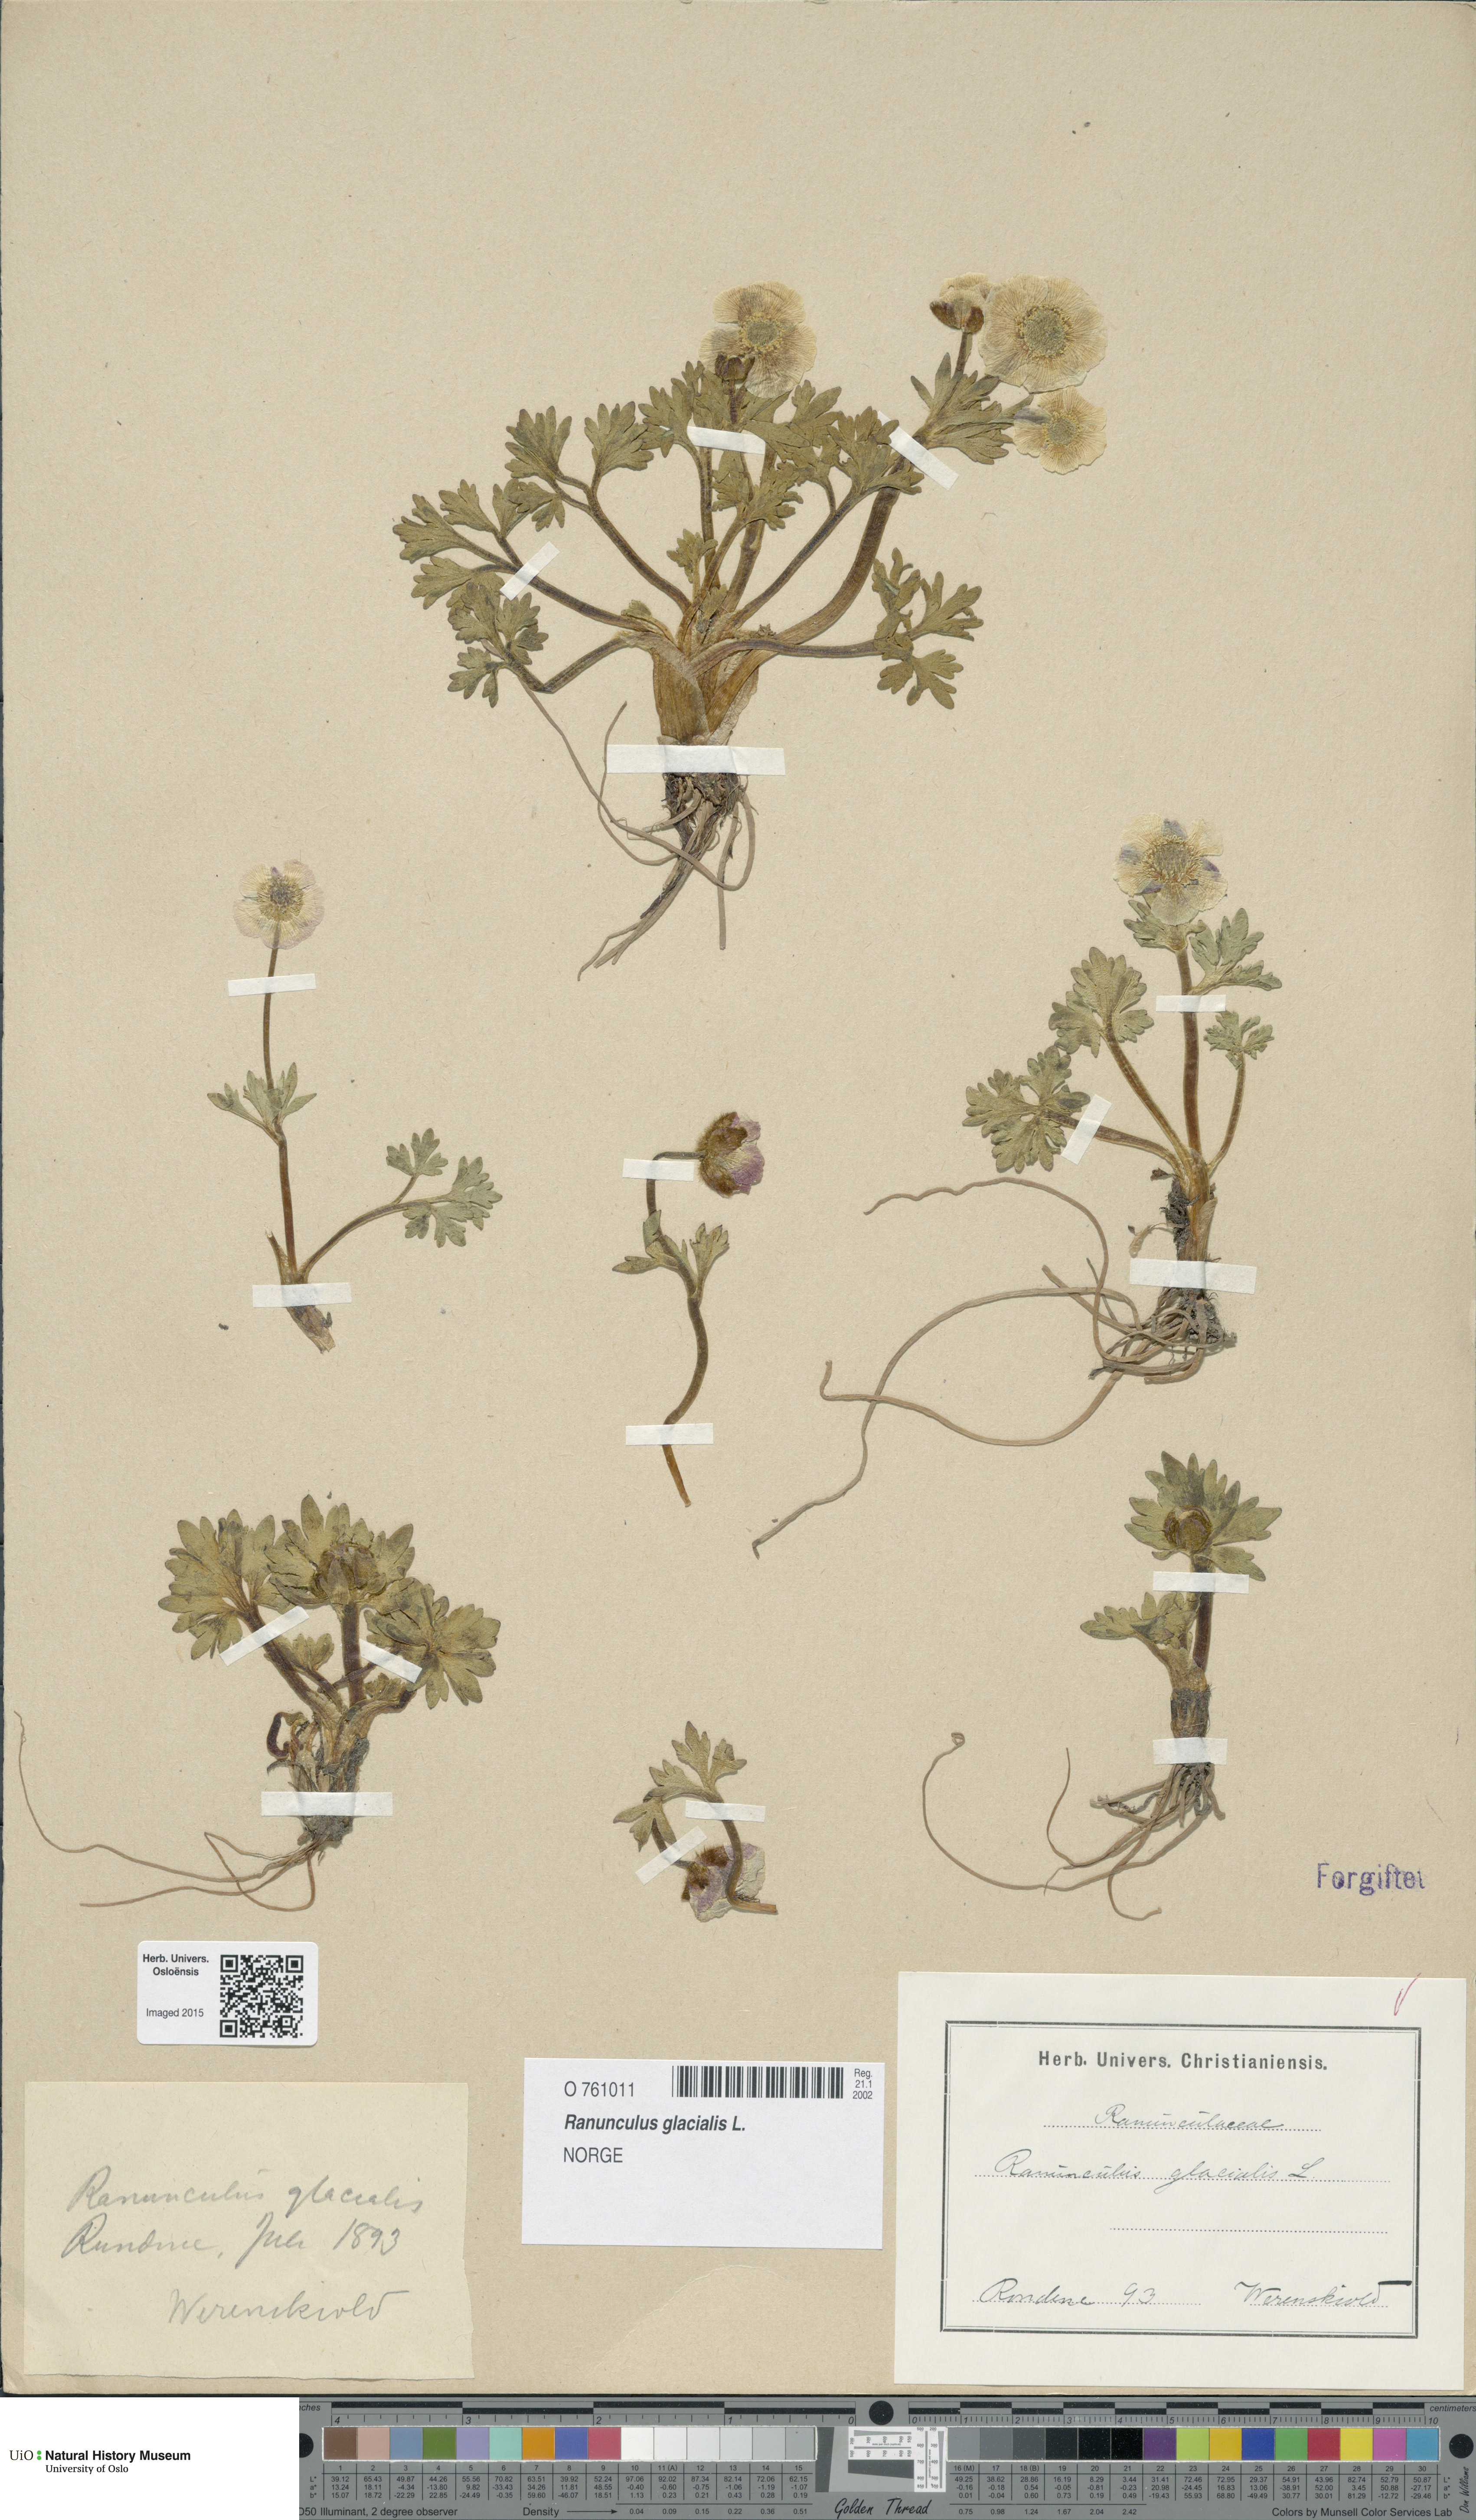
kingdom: Plantae
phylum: Tracheophyta
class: Magnoliopsida
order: Ranunculales
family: Ranunculaceae
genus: Ranunculus
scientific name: Ranunculus glacialis
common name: Glacier buttercup
